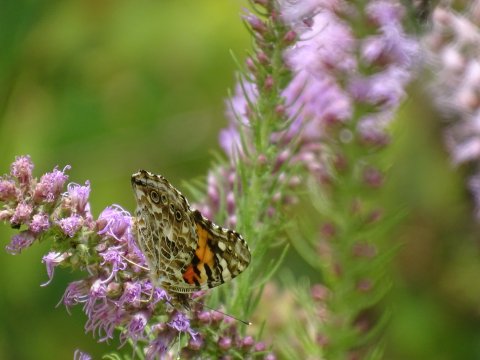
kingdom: Animalia
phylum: Arthropoda
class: Insecta
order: Lepidoptera
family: Nymphalidae
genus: Vanessa
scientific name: Vanessa cardui
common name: Painted Lady
